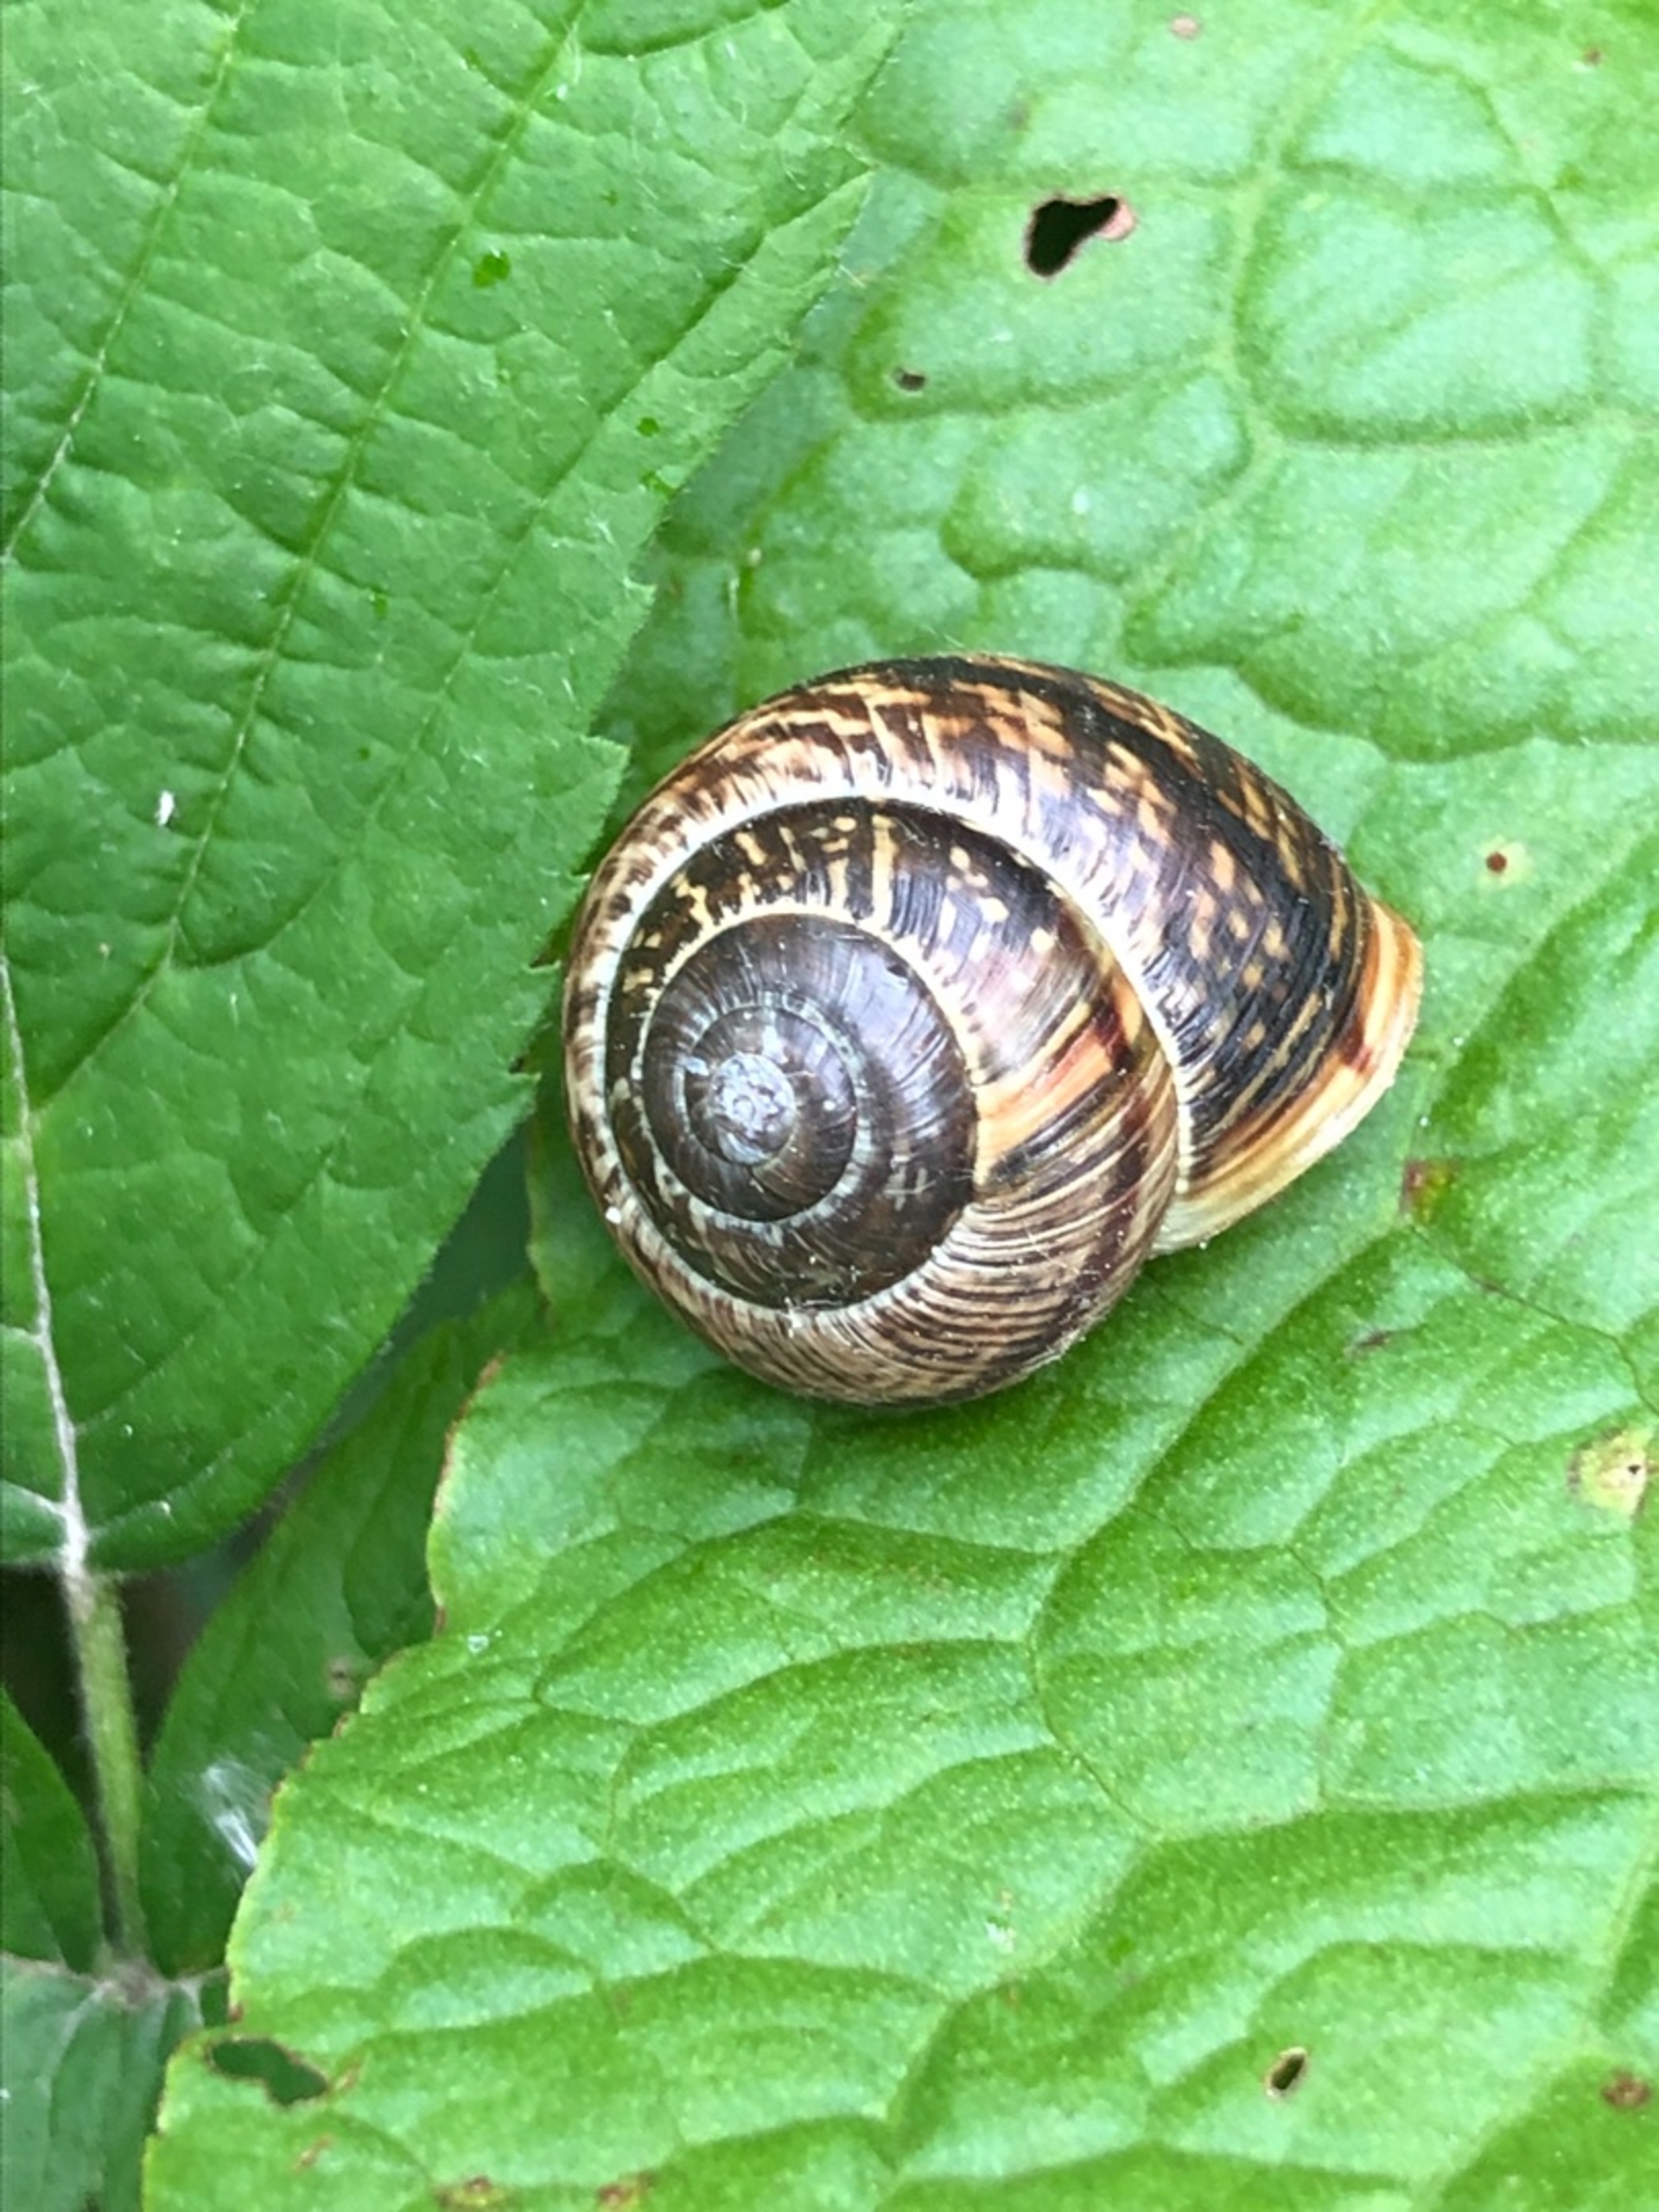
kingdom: Animalia
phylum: Mollusca
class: Gastropoda
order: Stylommatophora
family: Helicidae
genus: Arianta
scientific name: Arianta arbustorum
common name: Kratsnegl
